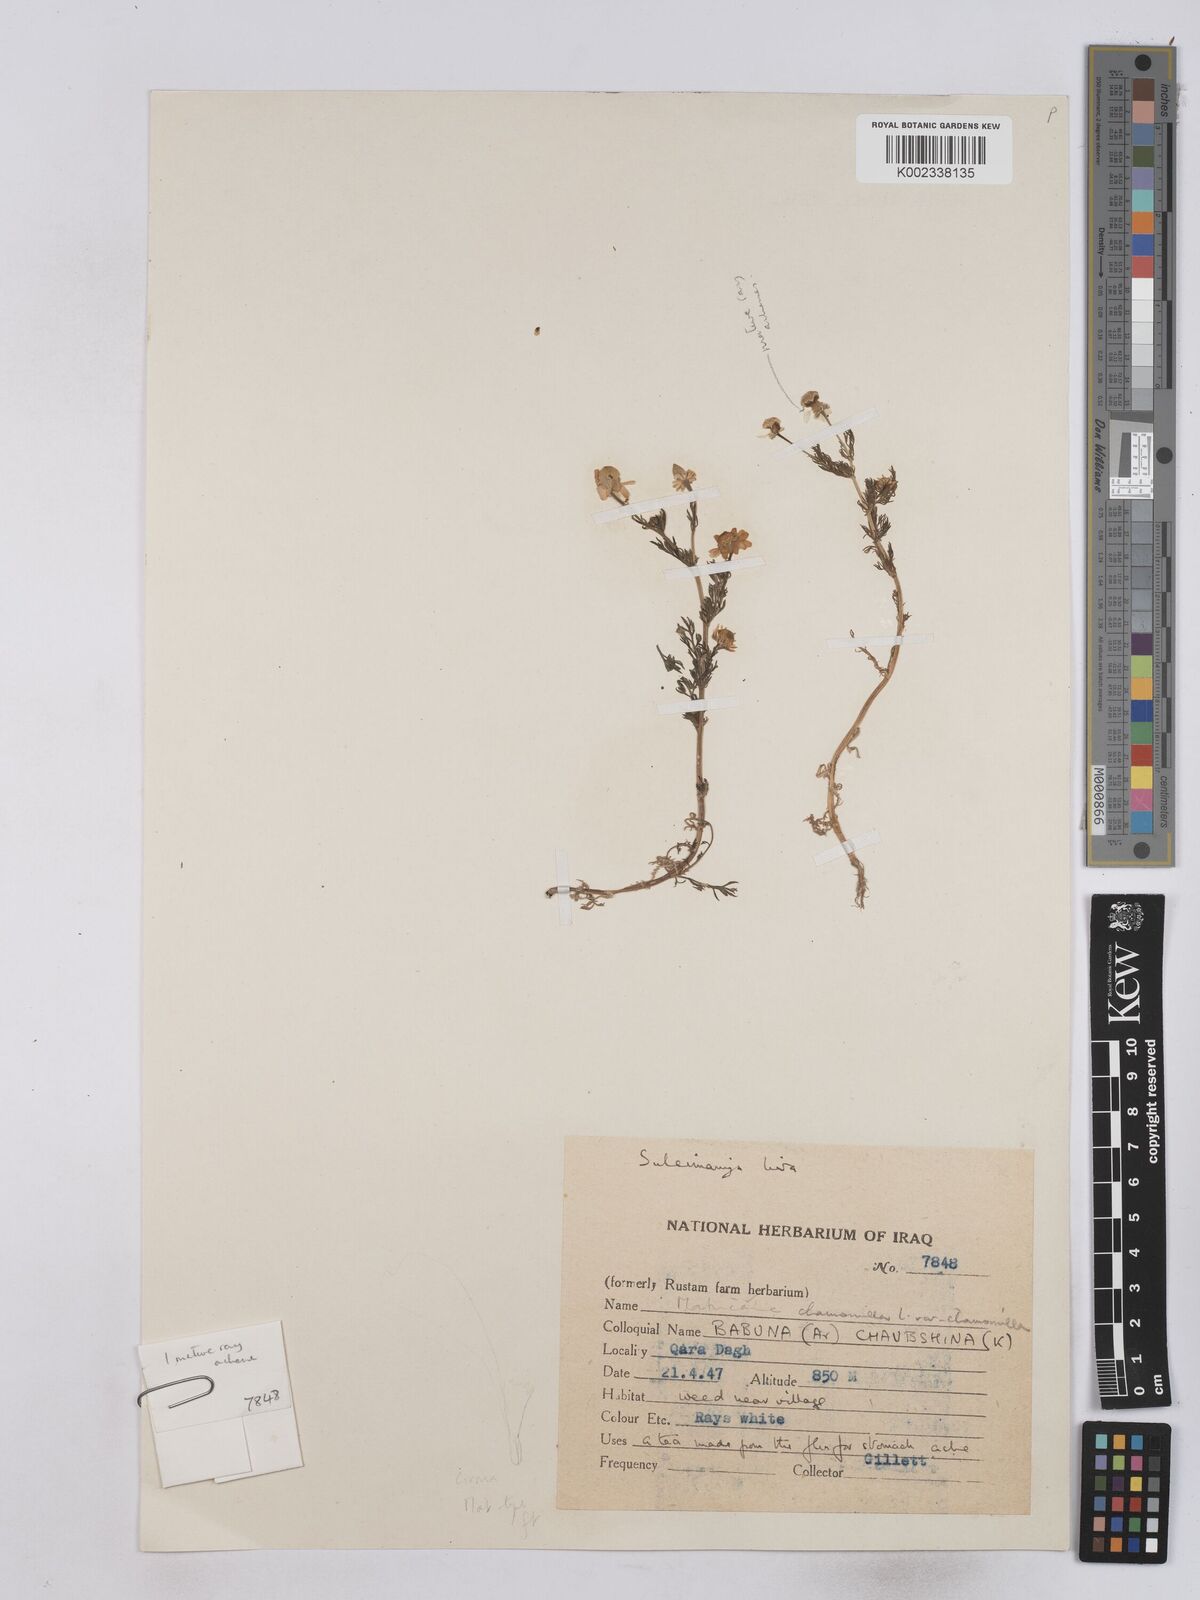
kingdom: Plantae
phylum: Tracheophyta
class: Magnoliopsida
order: Asterales
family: Asteraceae
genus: Matricaria
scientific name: Matricaria chamomilla
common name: Scented mayweed
